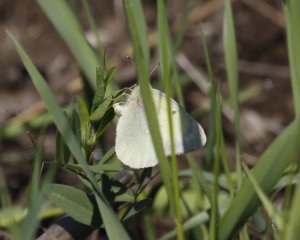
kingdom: Animalia
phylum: Arthropoda
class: Insecta
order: Lepidoptera
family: Pieridae
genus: Colias
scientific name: Colias interior
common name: Pink-edged Sulphur
